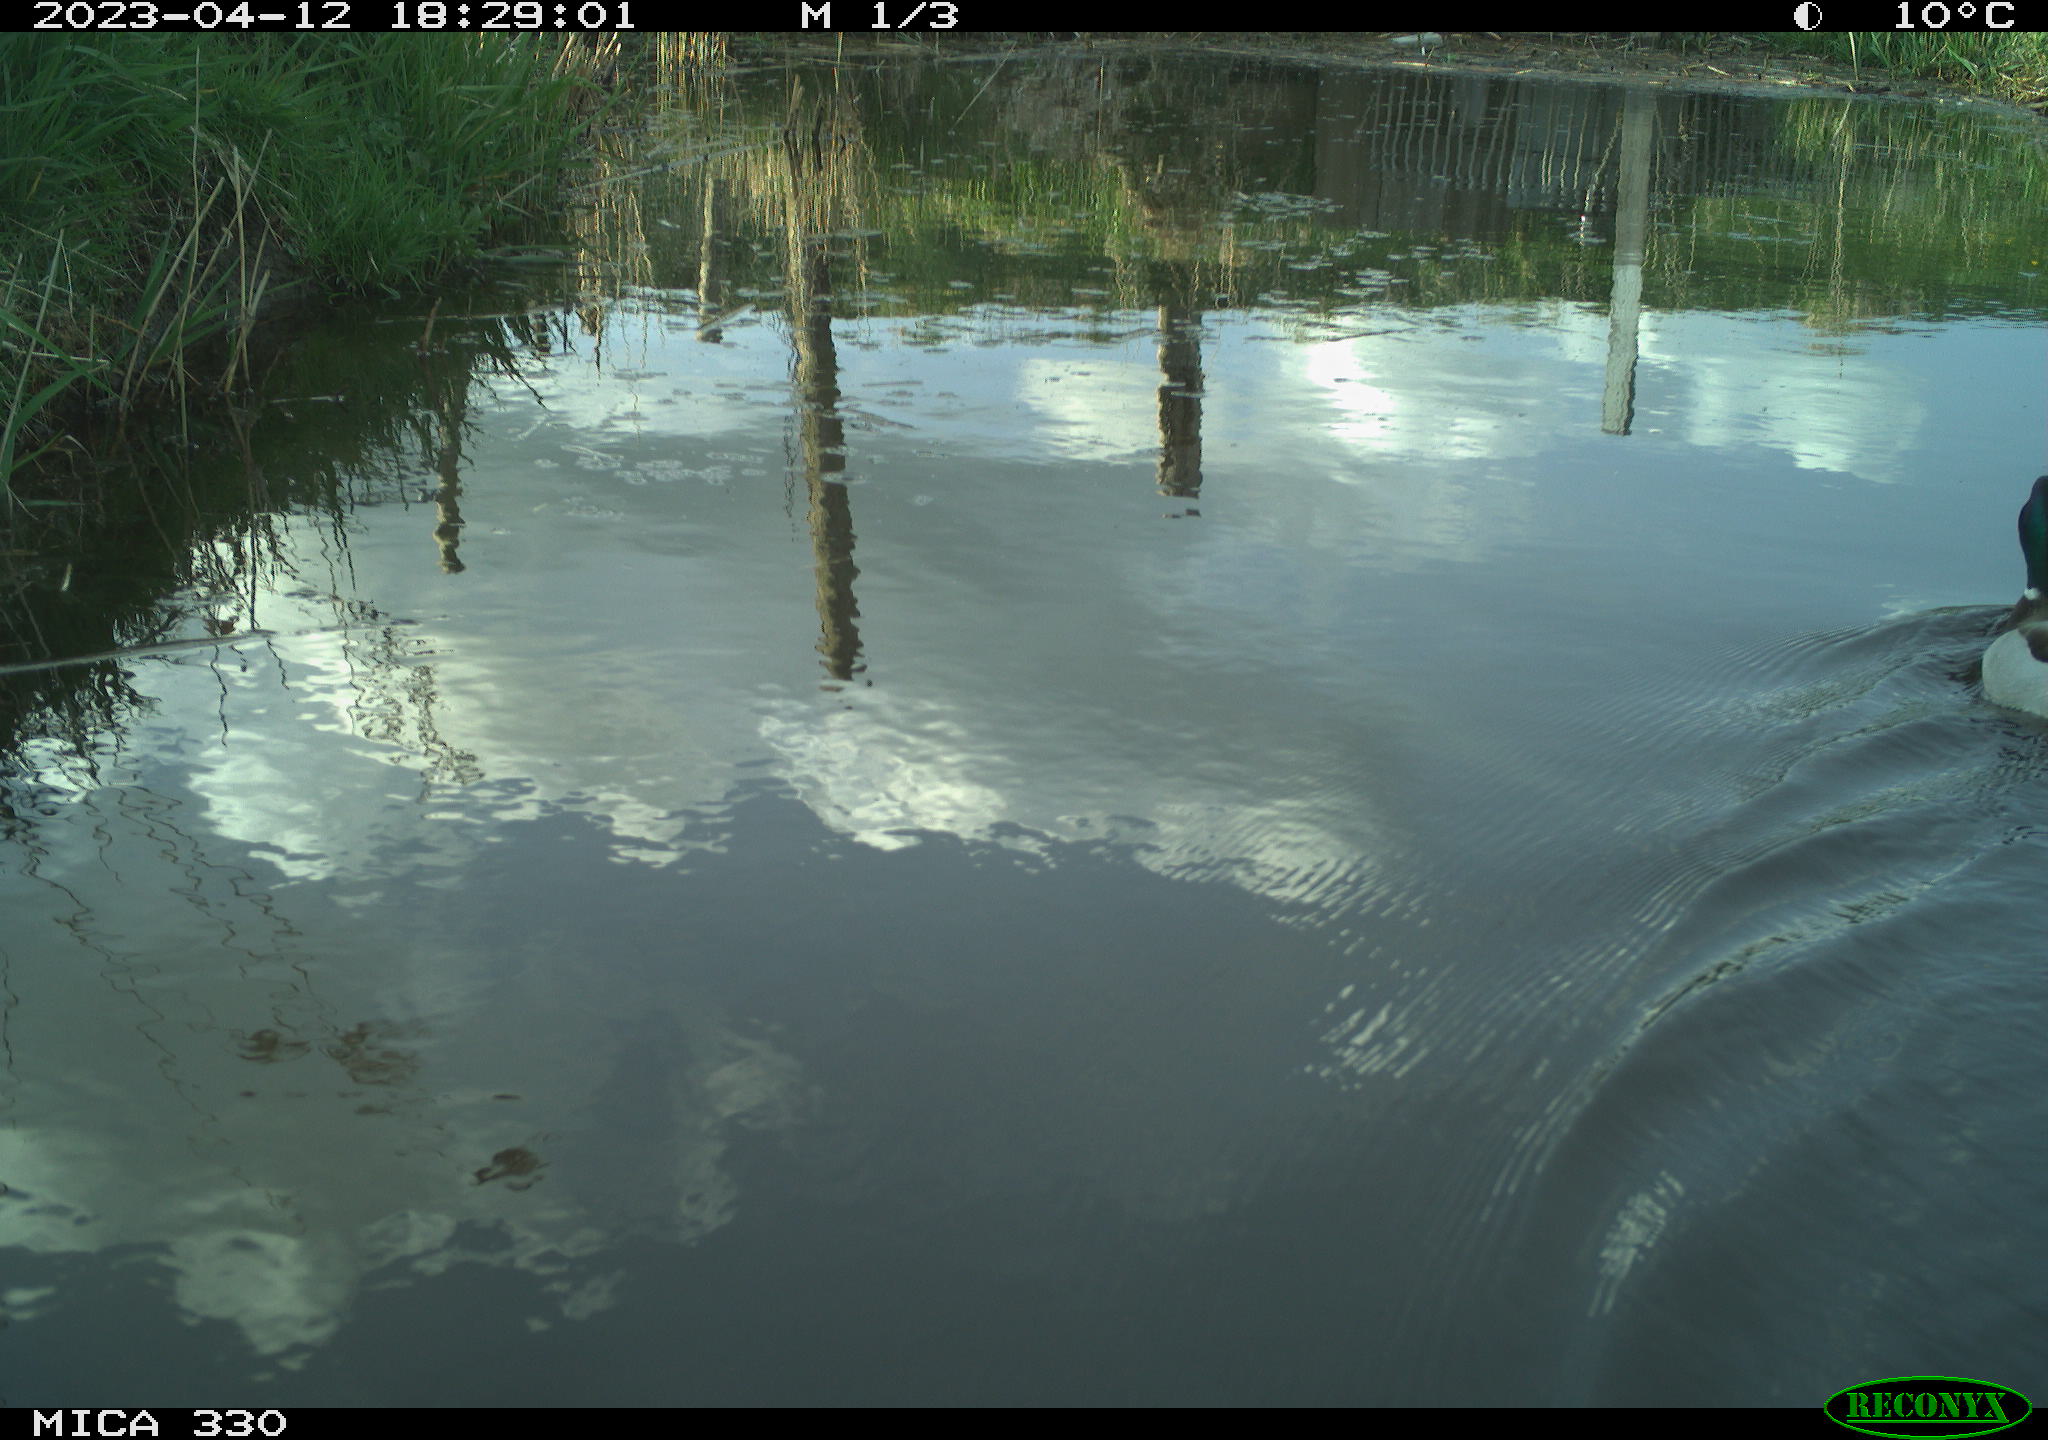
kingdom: Animalia
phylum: Chordata
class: Aves
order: Anseriformes
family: Anatidae
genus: Anas
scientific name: Anas
